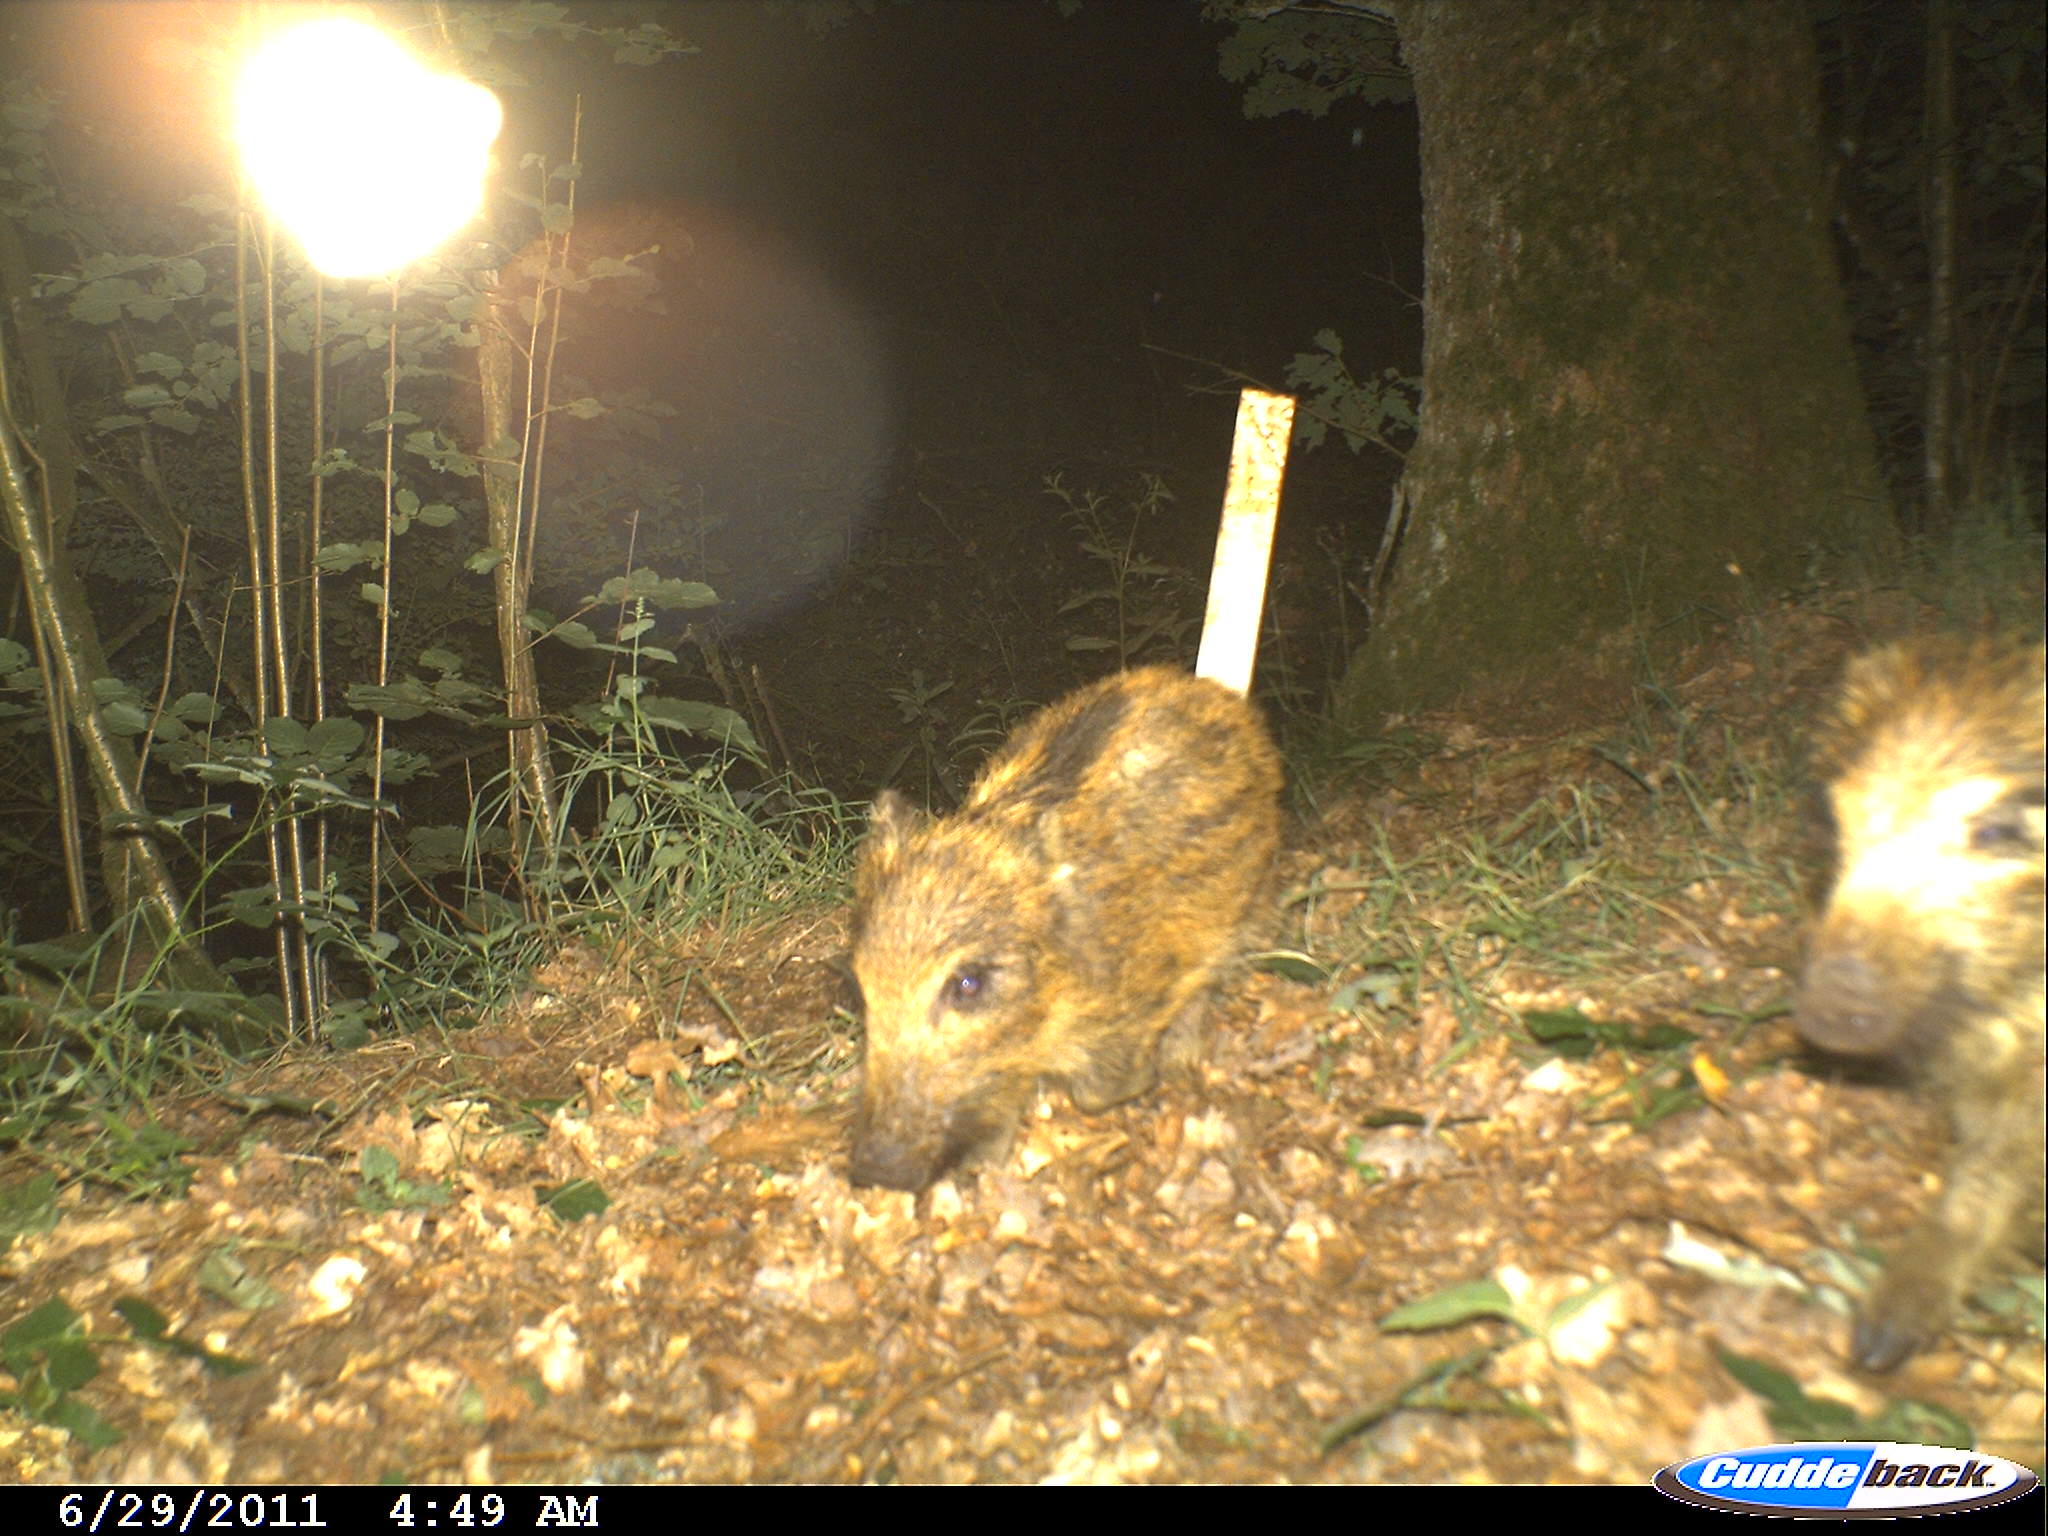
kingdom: Animalia
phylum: Chordata
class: Mammalia
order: Artiodactyla
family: Suidae
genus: Sus
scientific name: Sus scrofa
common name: Wild boar
